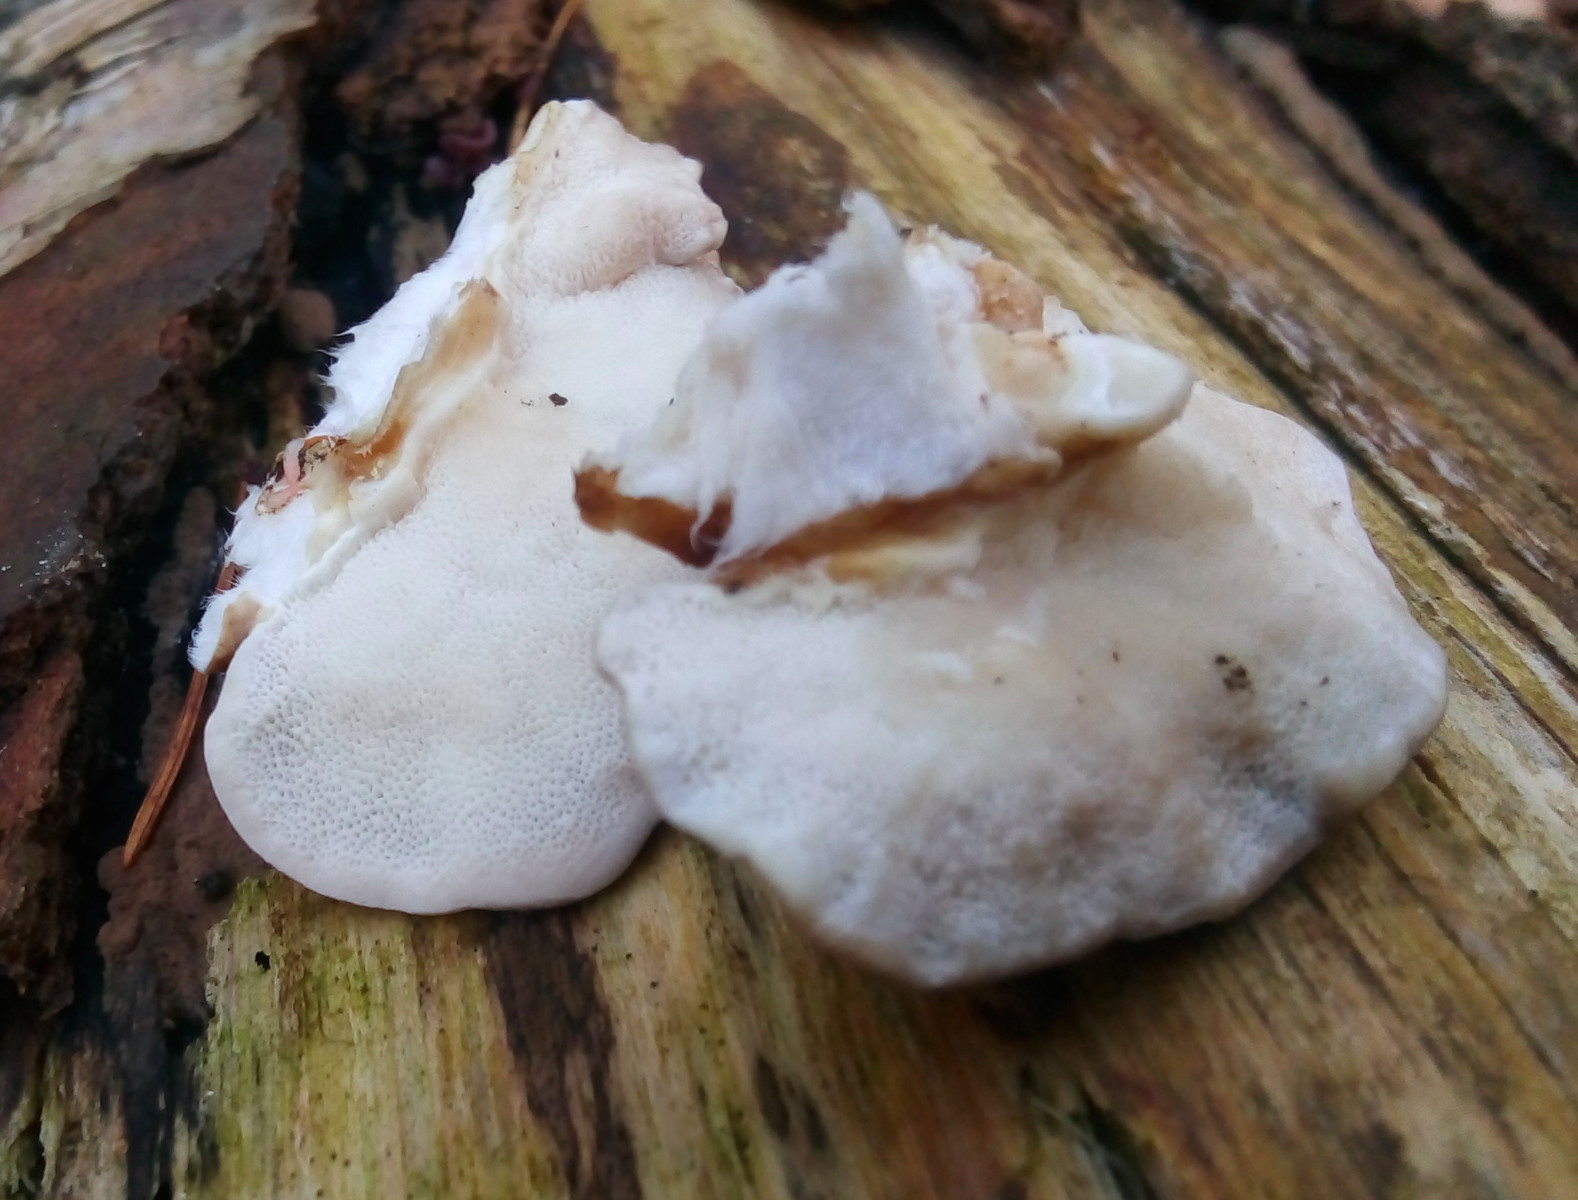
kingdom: Fungi
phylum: Basidiomycota
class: Agaricomycetes
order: Polyporales
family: Polyporaceae
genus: Trametes
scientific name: Trametes ochracea
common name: bæltet læderporesvamp
